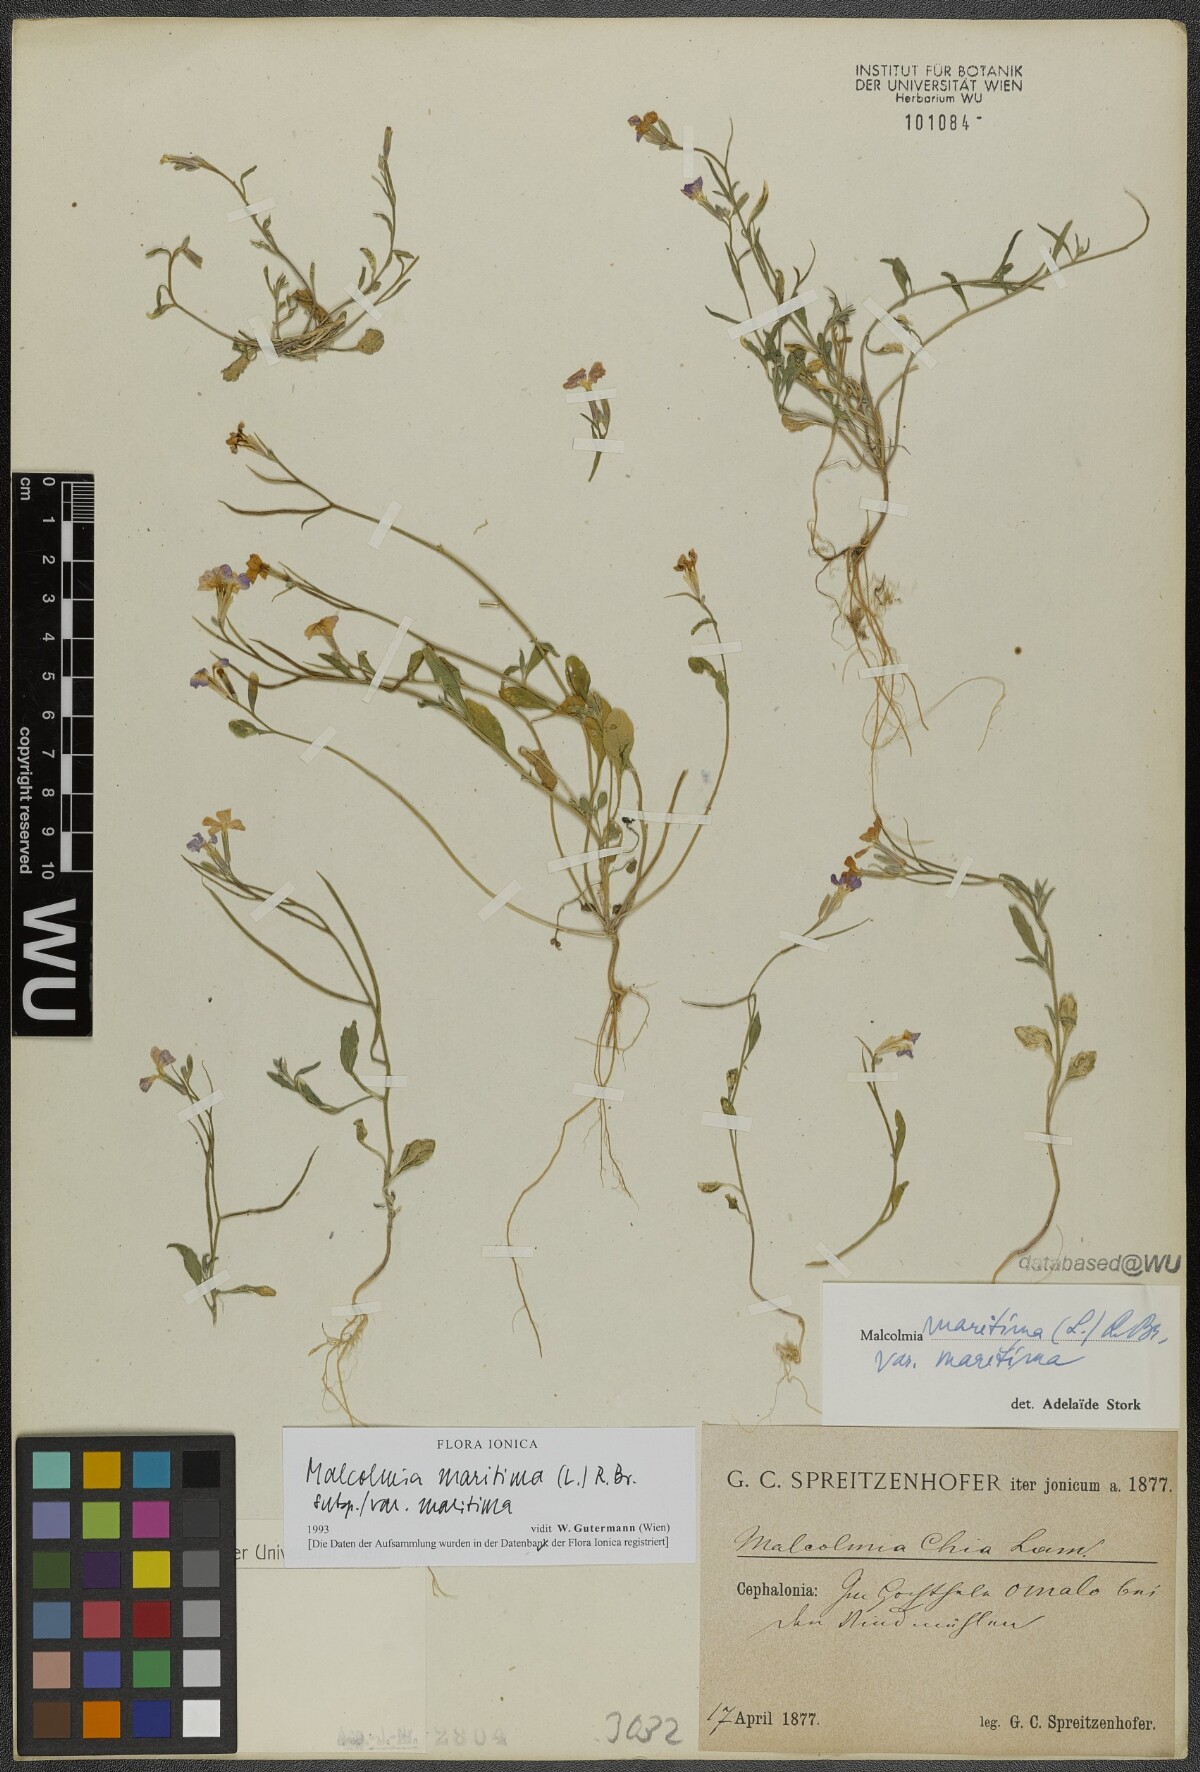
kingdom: Plantae
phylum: Tracheophyta
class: Magnoliopsida
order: Brassicales
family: Brassicaceae
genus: Malcolmia
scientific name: Malcolmia maritima
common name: Virginia stock
